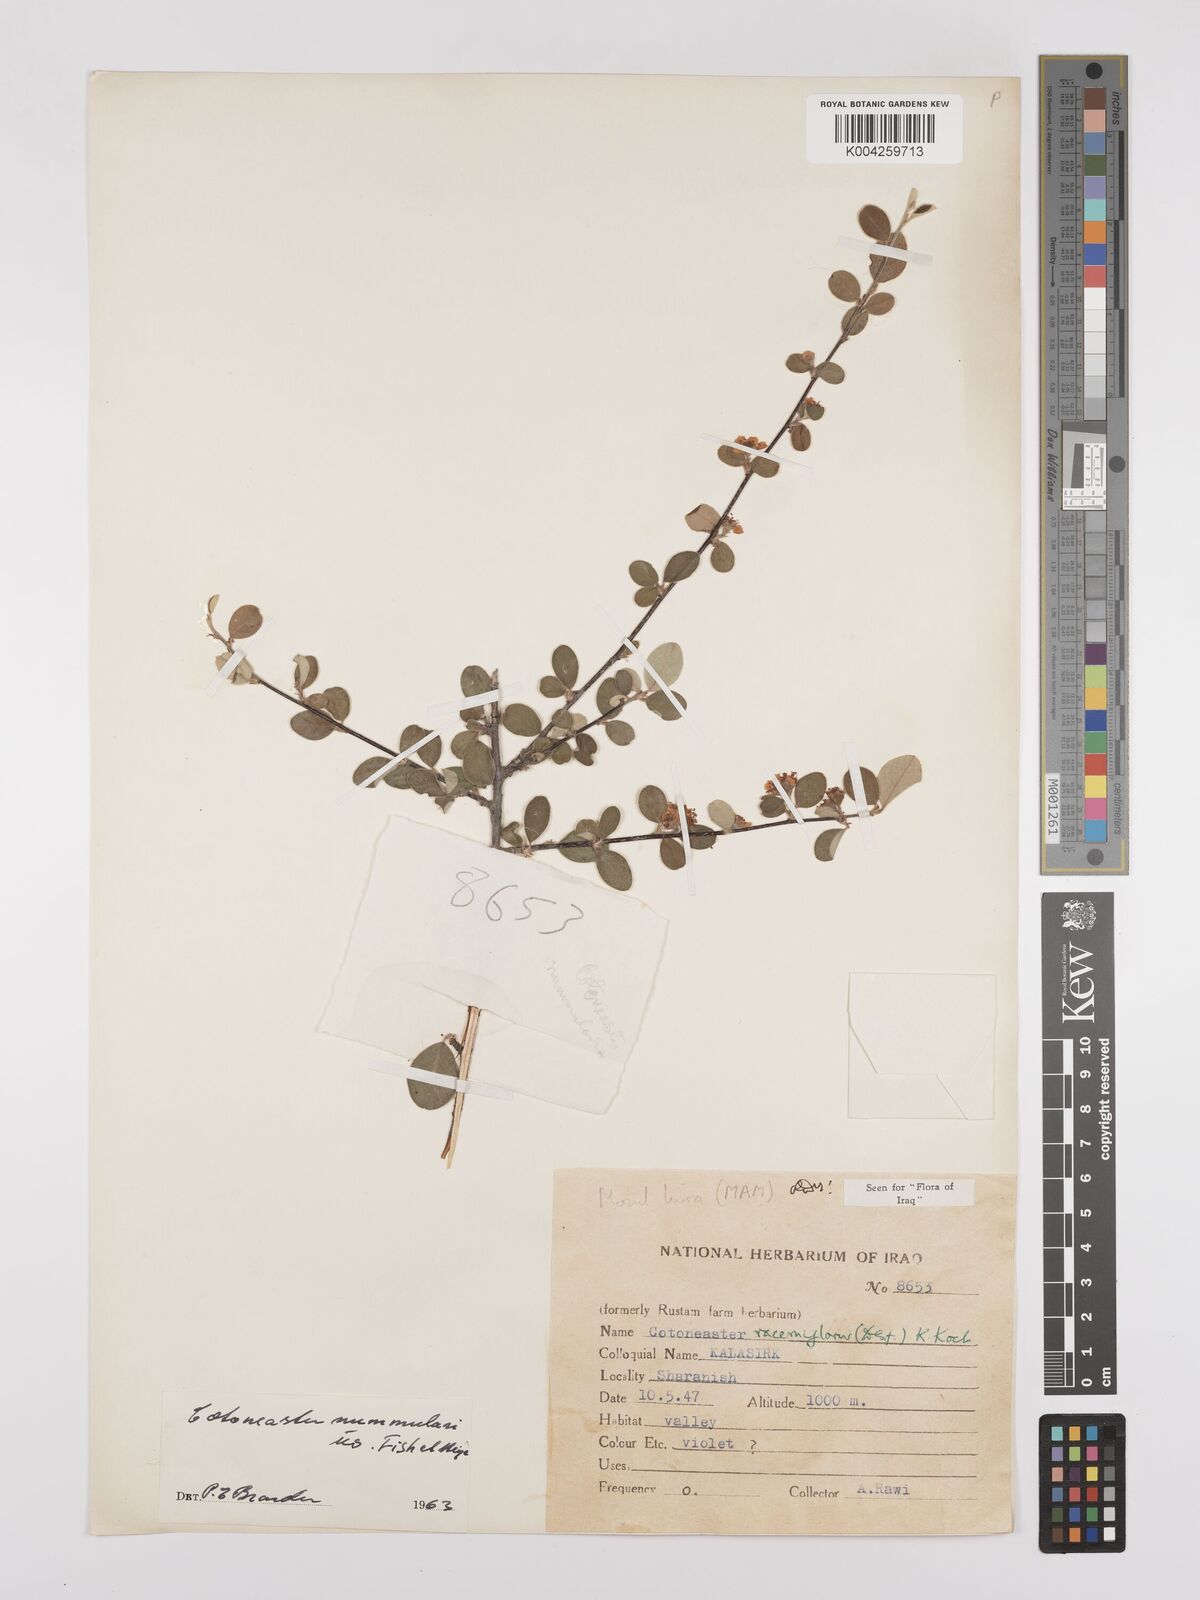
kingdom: Plantae
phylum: Tracheophyta
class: Magnoliopsida
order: Rosales
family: Rosaceae
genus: Cotoneaster
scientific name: Cotoneaster nummularius
